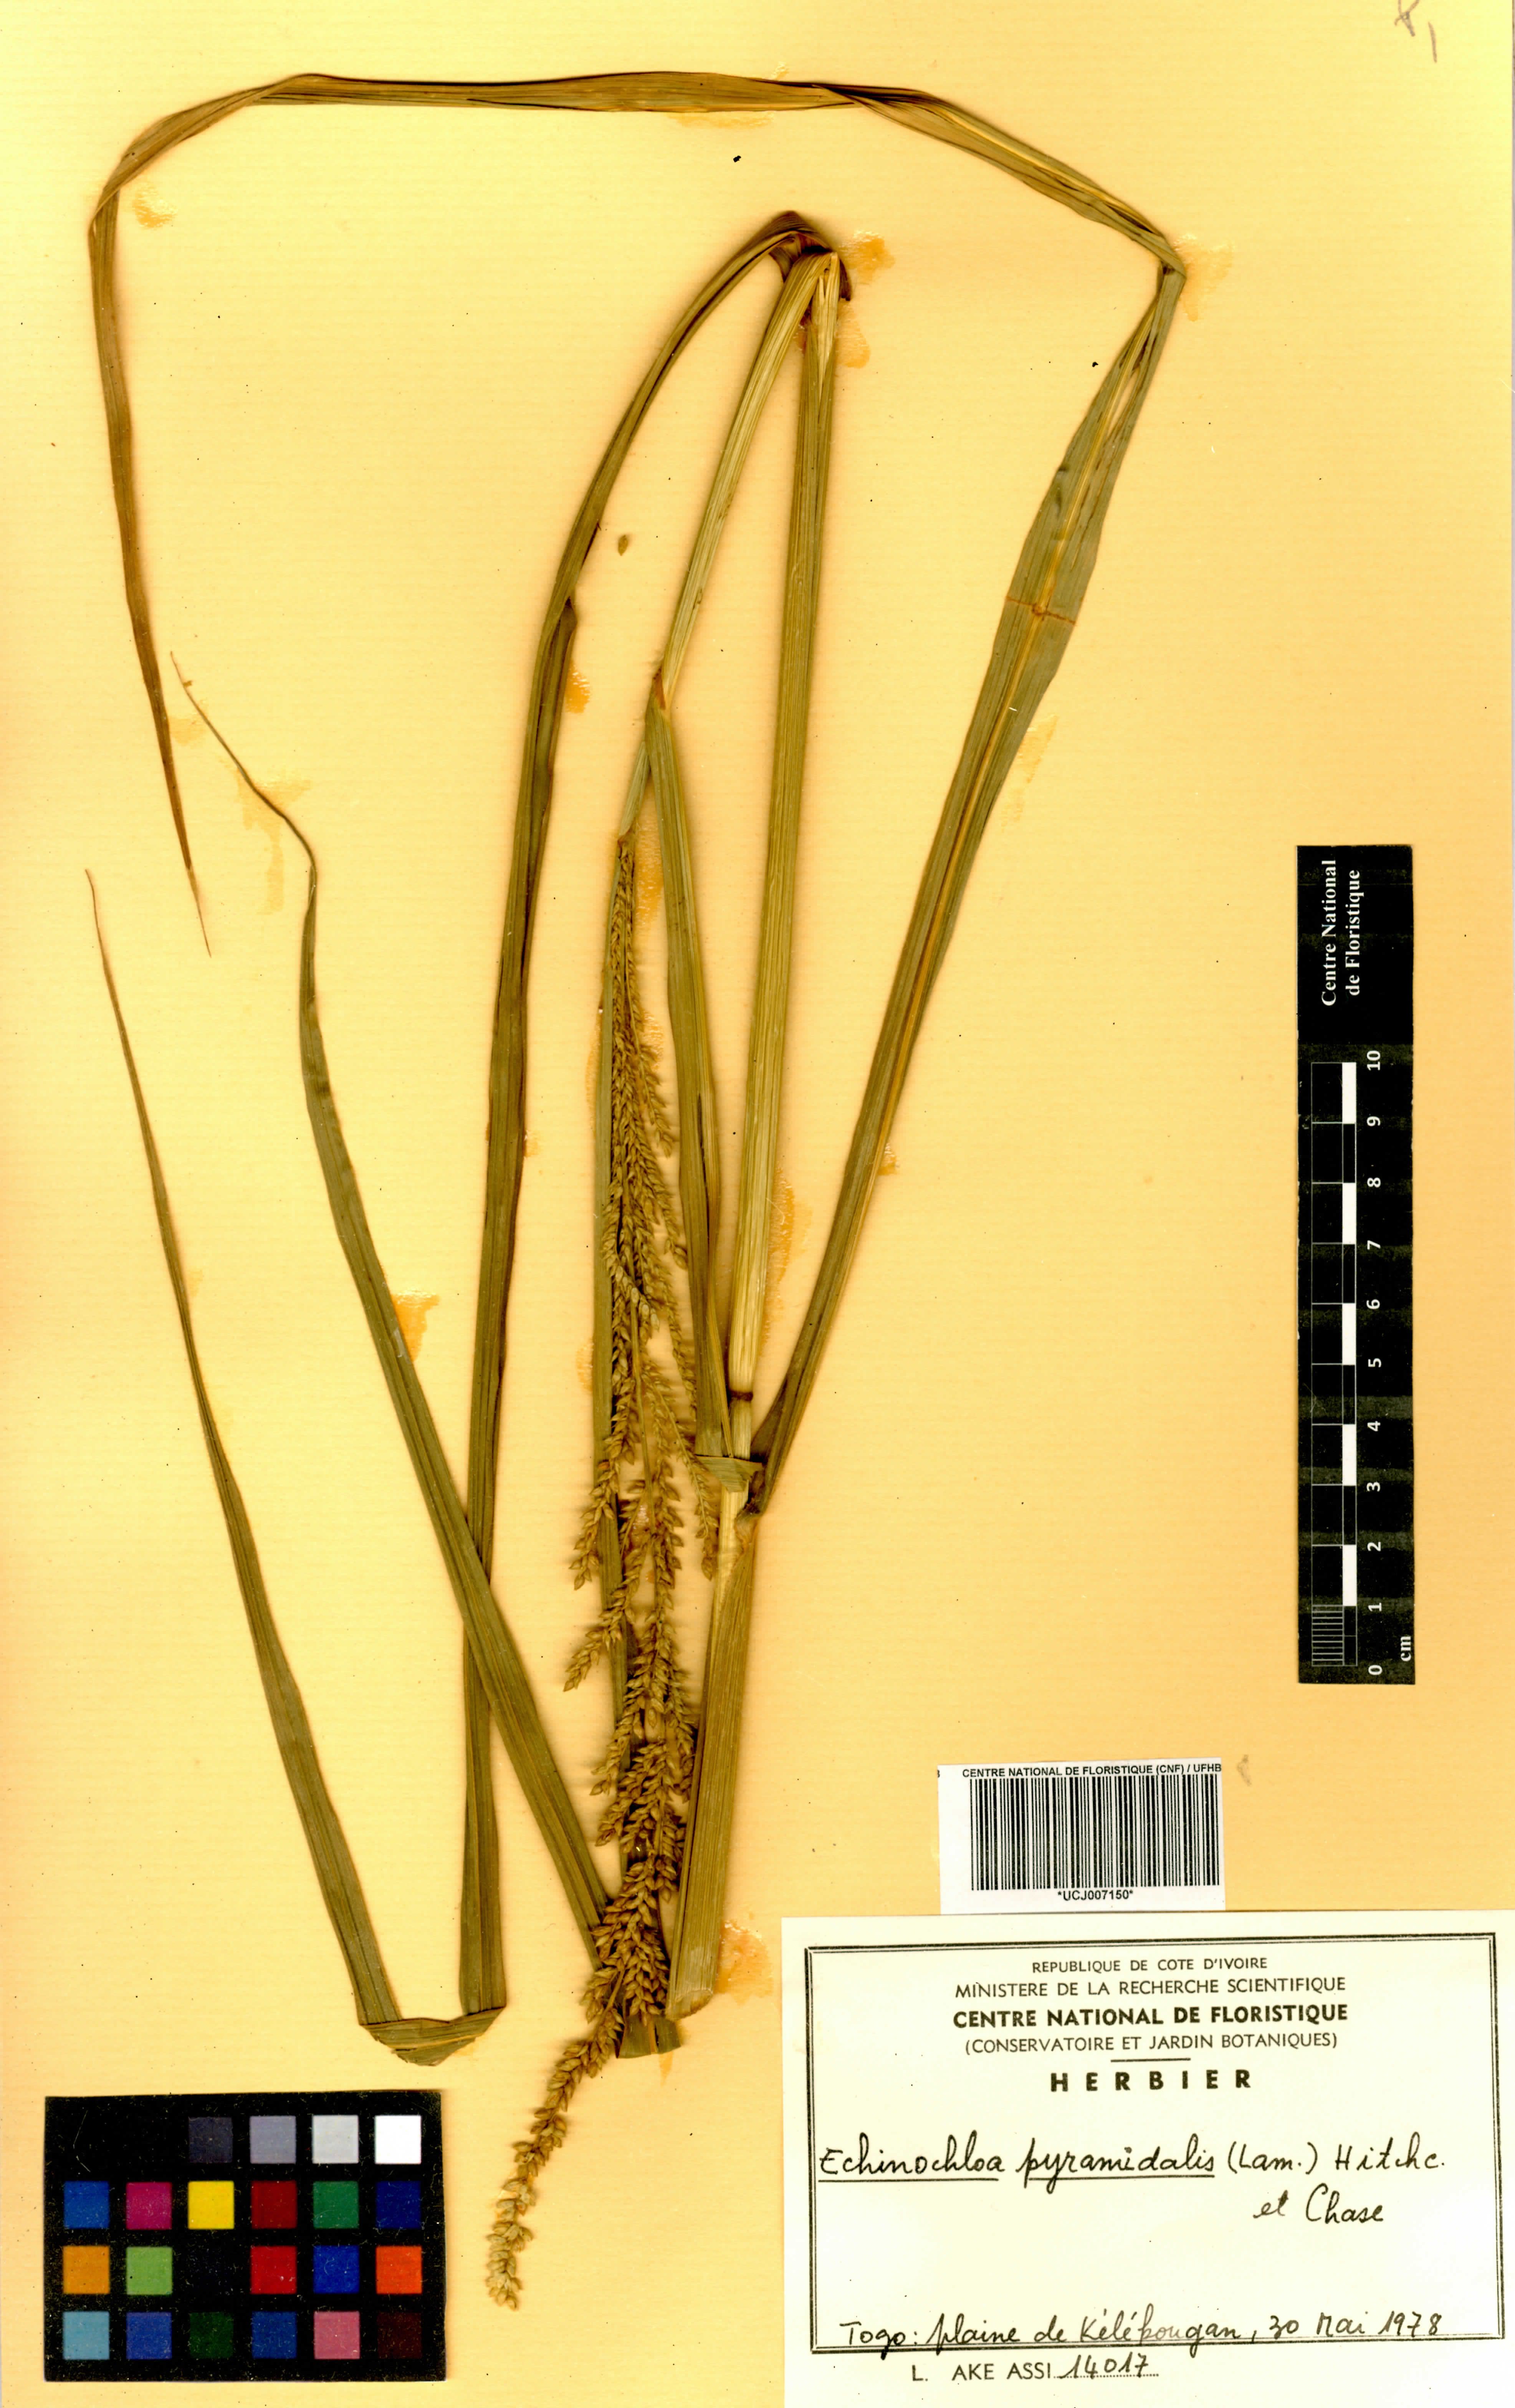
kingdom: Plantae
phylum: Tracheophyta
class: Liliopsida
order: Poales
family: Poaceae
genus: Echinochloa
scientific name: Echinochloa pyramidalis
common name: Antelope grass
